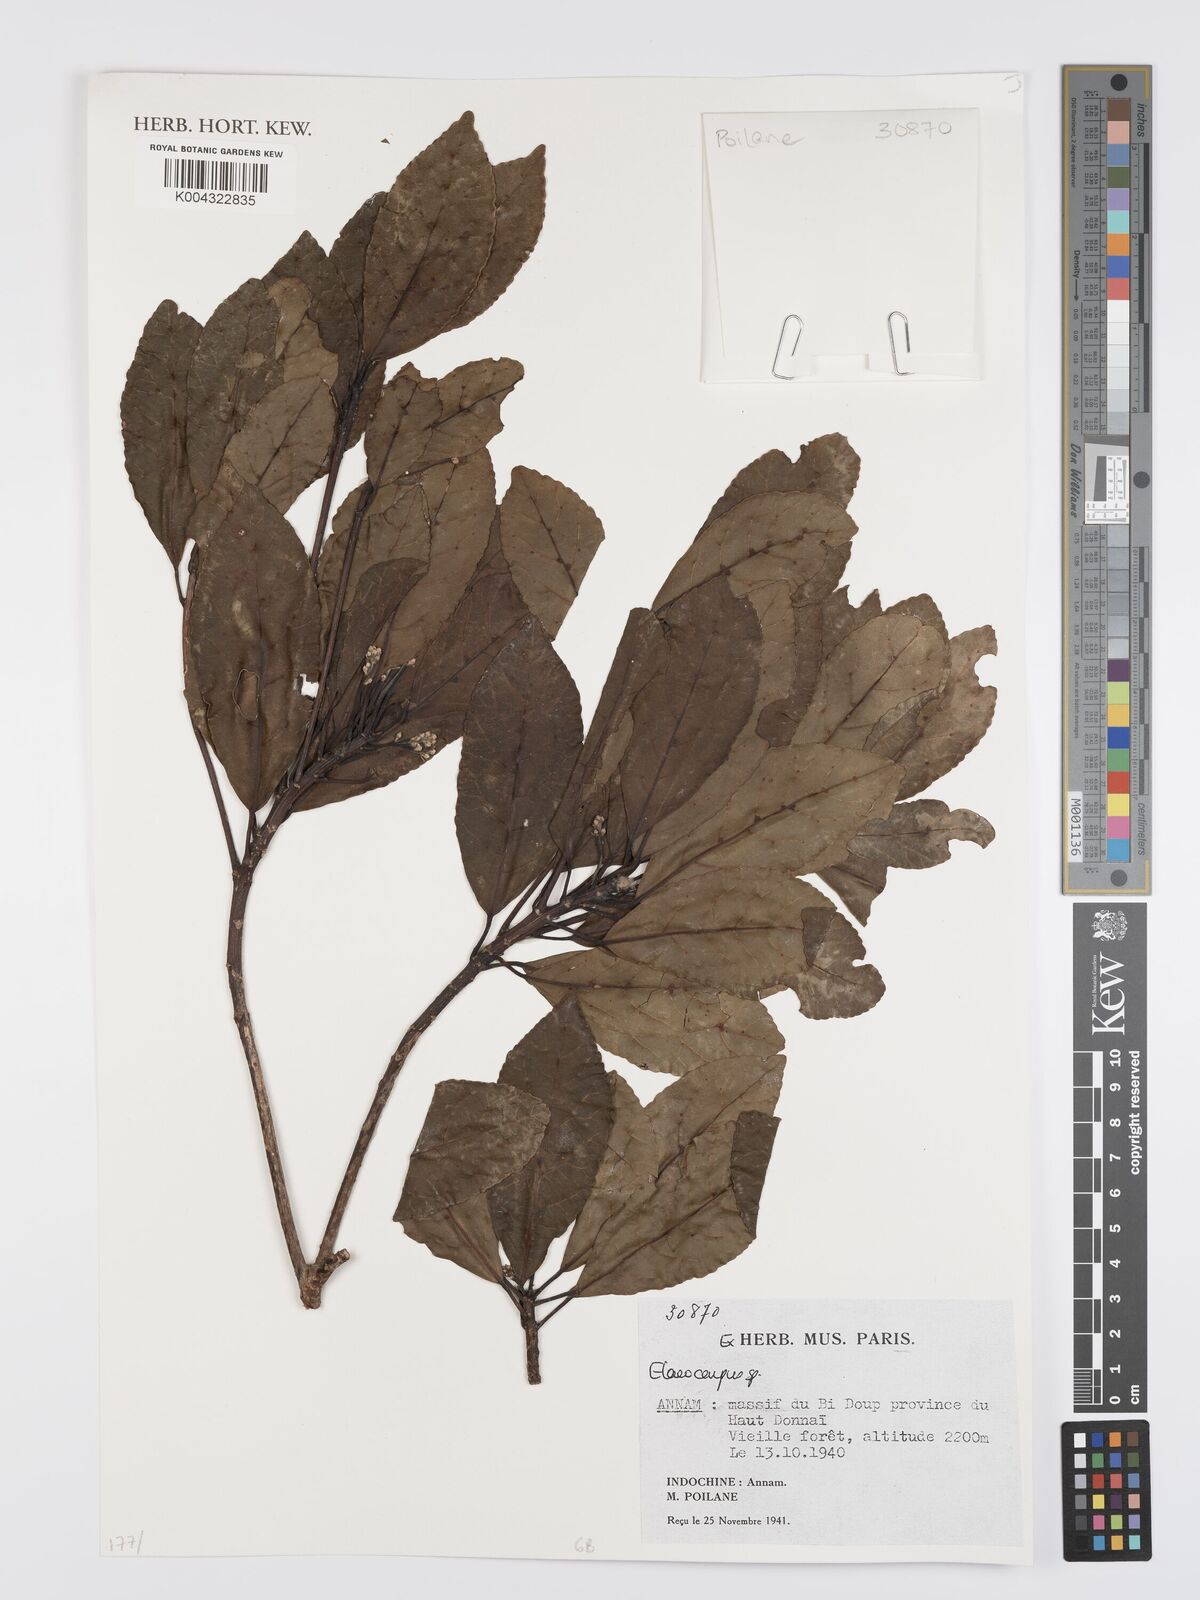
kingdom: Plantae
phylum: Tracheophyta
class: Magnoliopsida
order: Oxalidales
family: Elaeocarpaceae
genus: Elaeocarpus
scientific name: Elaeocarpus
